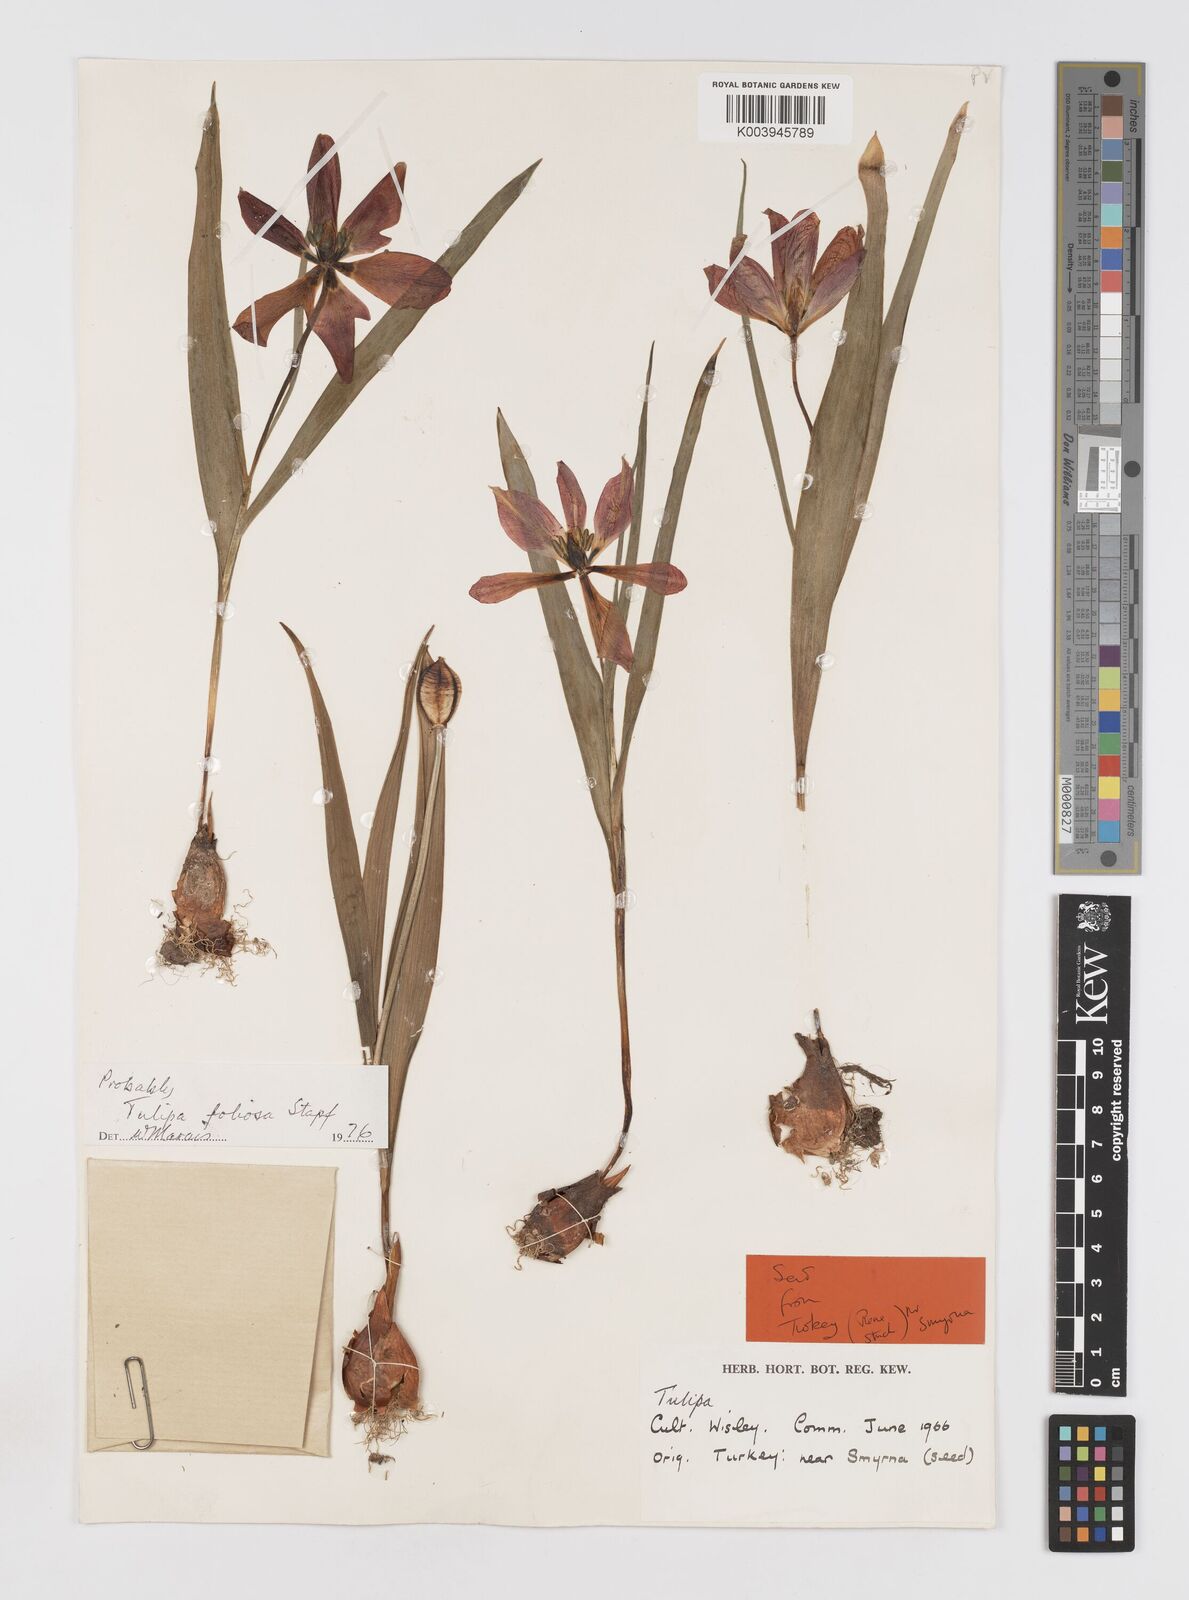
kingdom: Plantae
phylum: Tracheophyta
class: Liliopsida
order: Liliales
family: Liliaceae
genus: Tulipa
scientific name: Tulipa foliosa
